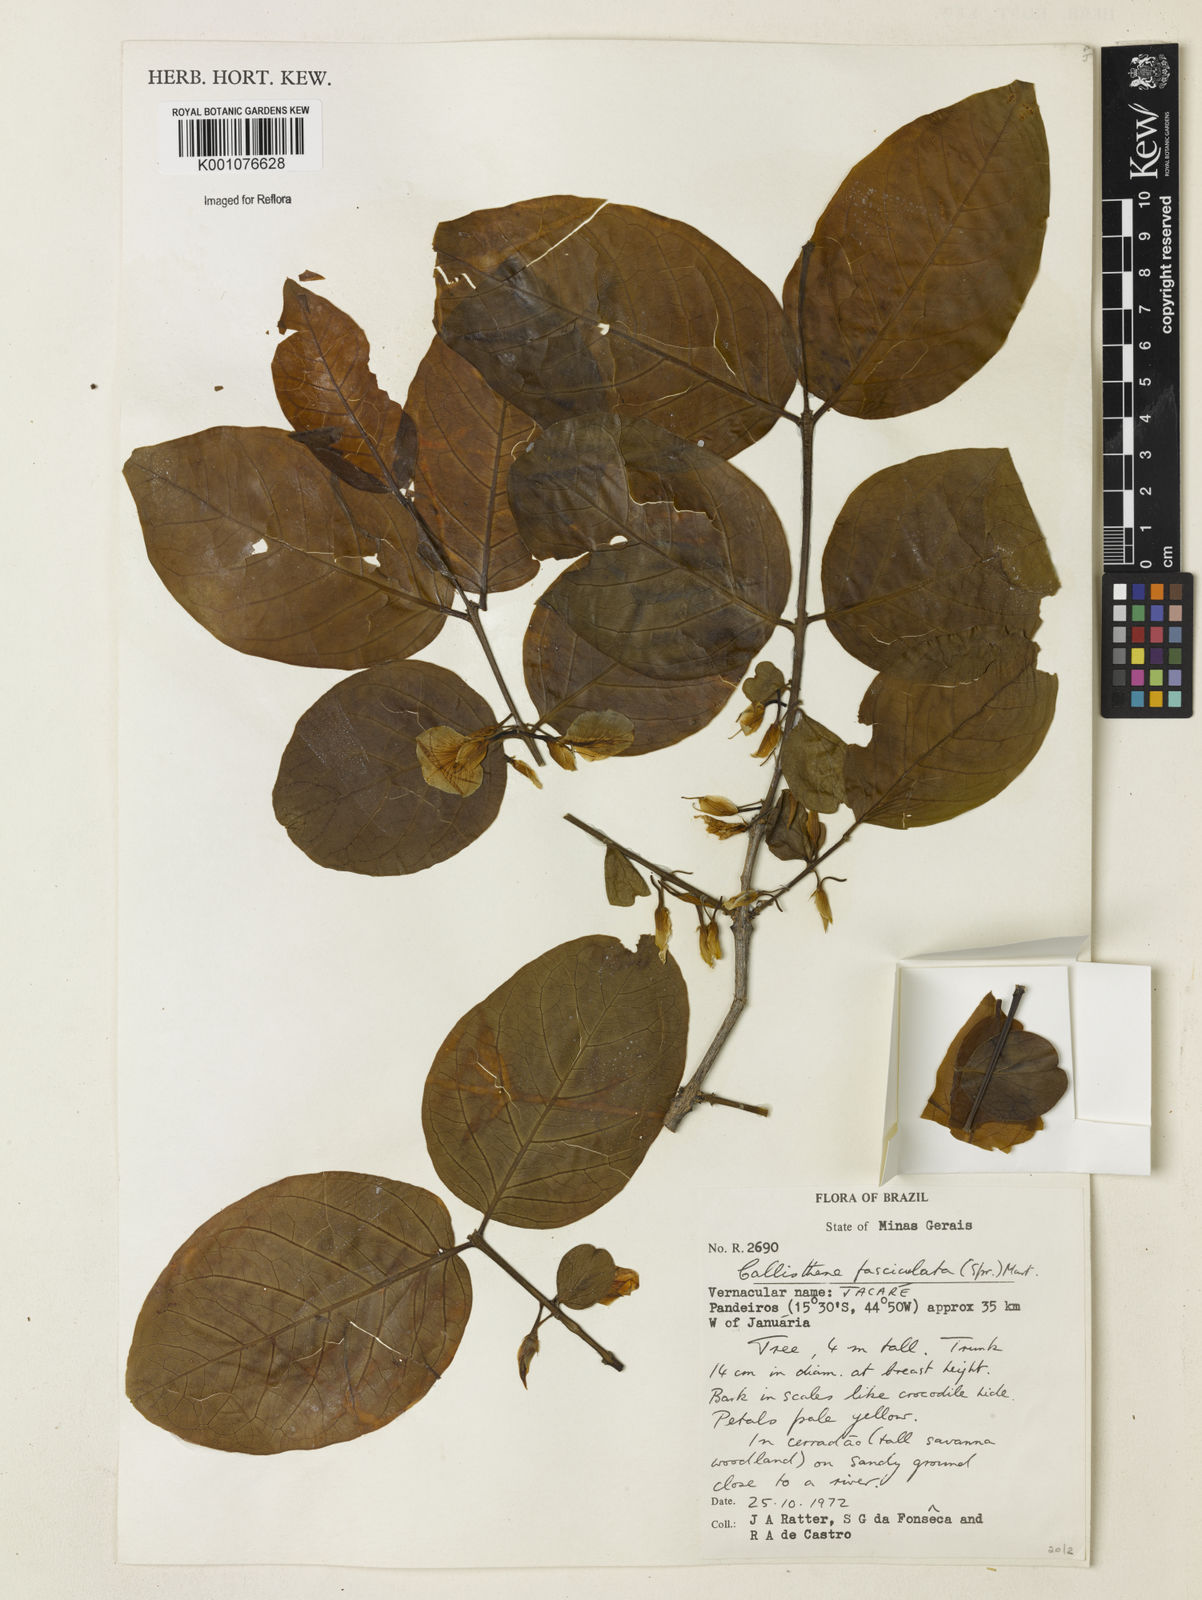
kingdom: Plantae
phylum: Tracheophyta
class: Magnoliopsida
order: Myrtales
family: Vochysiaceae
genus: Callisthene
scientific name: Callisthene fasciculata
